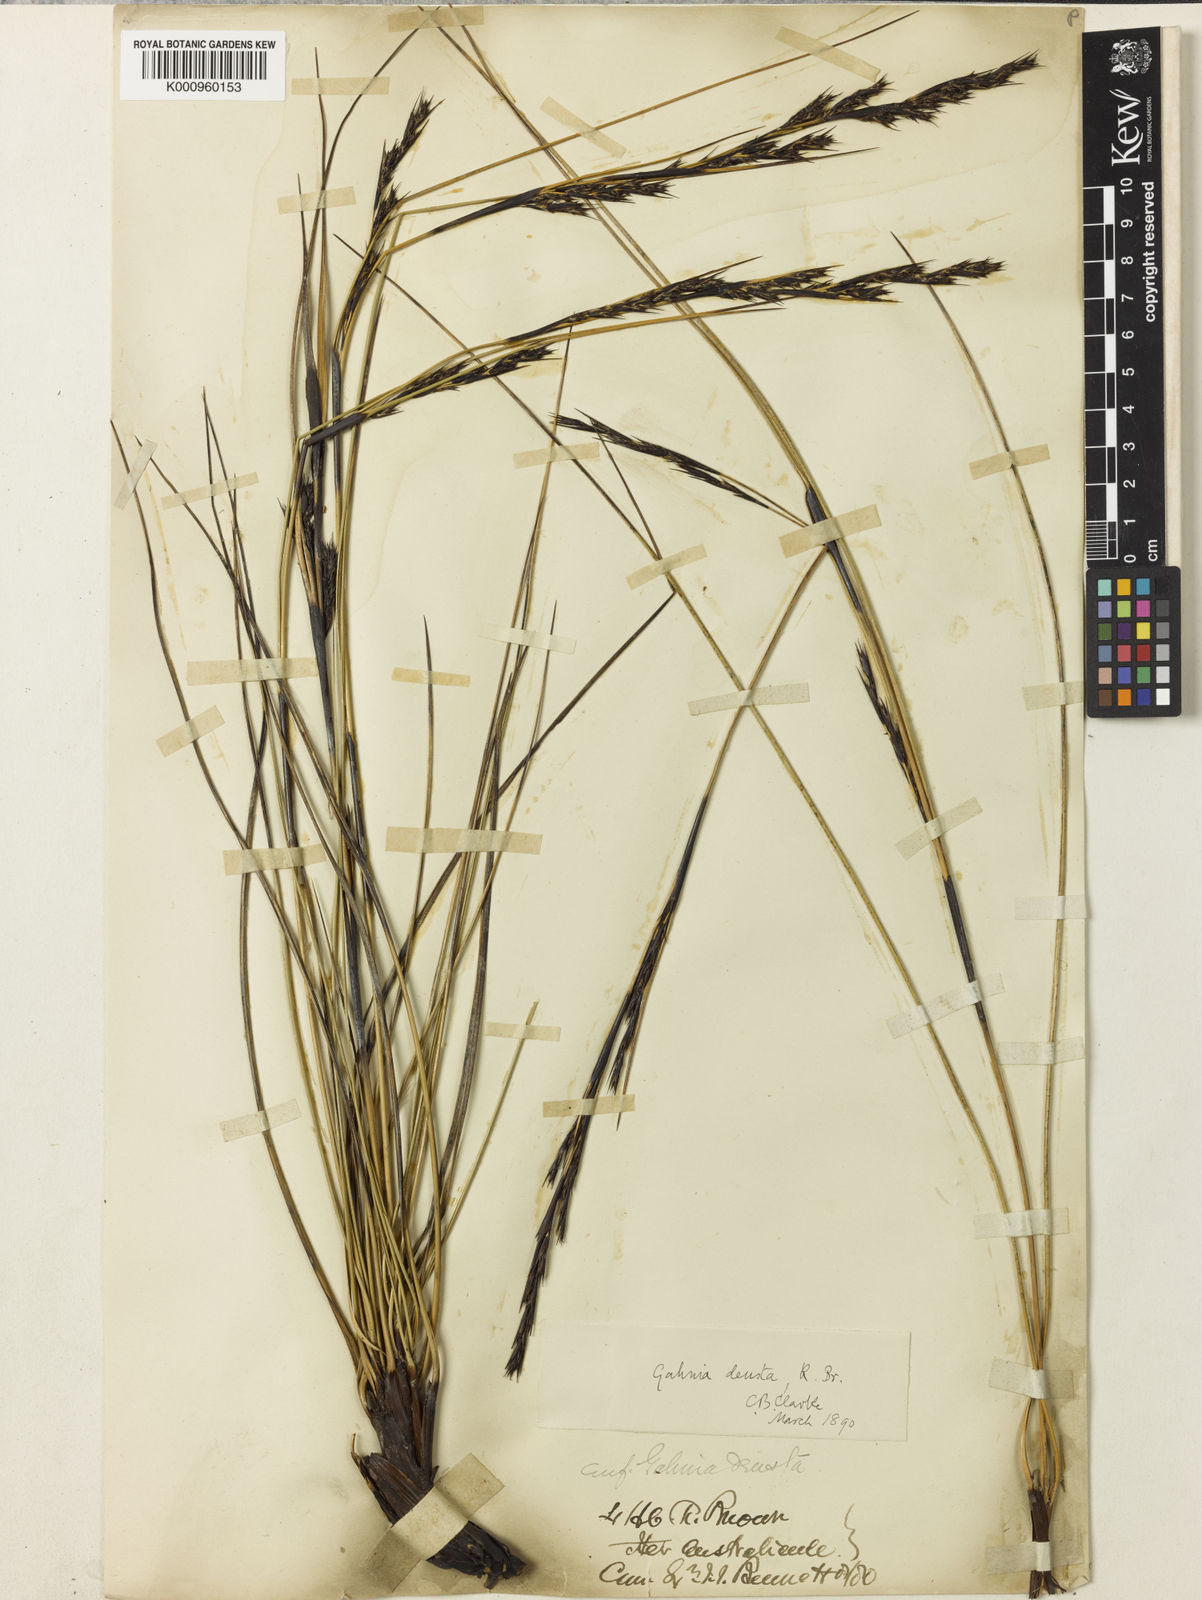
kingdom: Plantae
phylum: Tracheophyta
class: Liliopsida
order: Poales
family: Cyperaceae
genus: Gahnia
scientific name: Gahnia deusta
